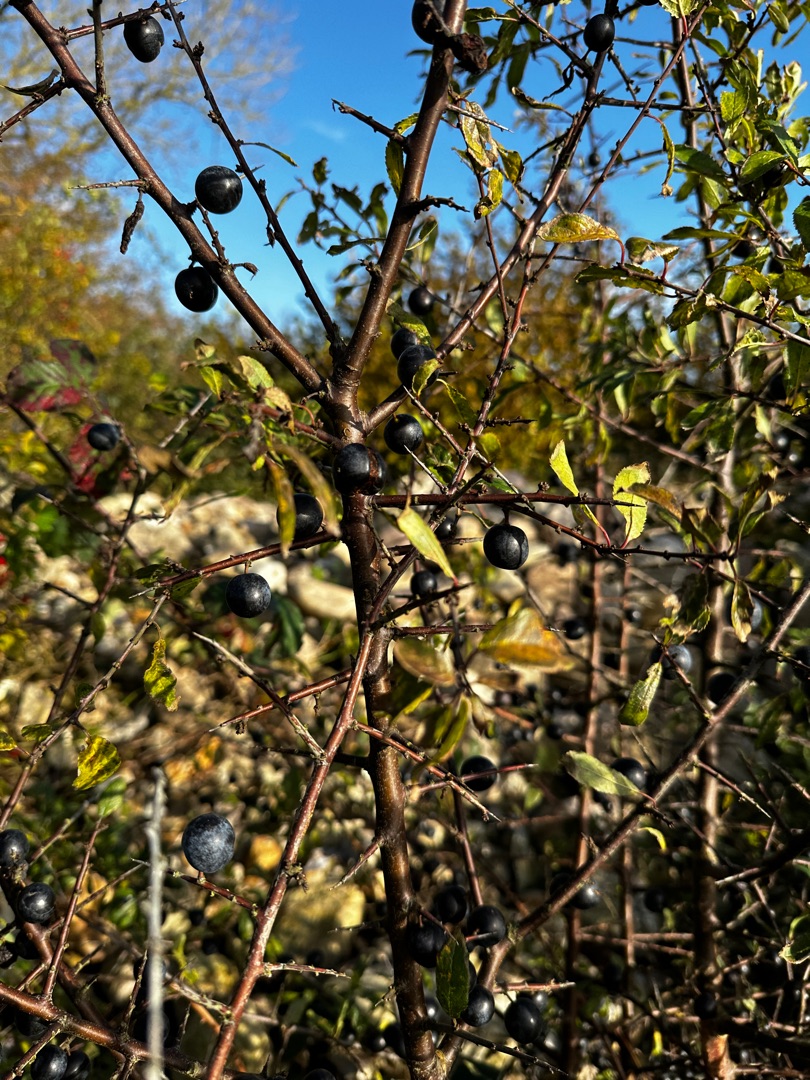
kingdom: Plantae
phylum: Tracheophyta
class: Magnoliopsida
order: Rosales
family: Rosaceae
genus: Prunus
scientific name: Prunus spinosa
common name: Slåen
